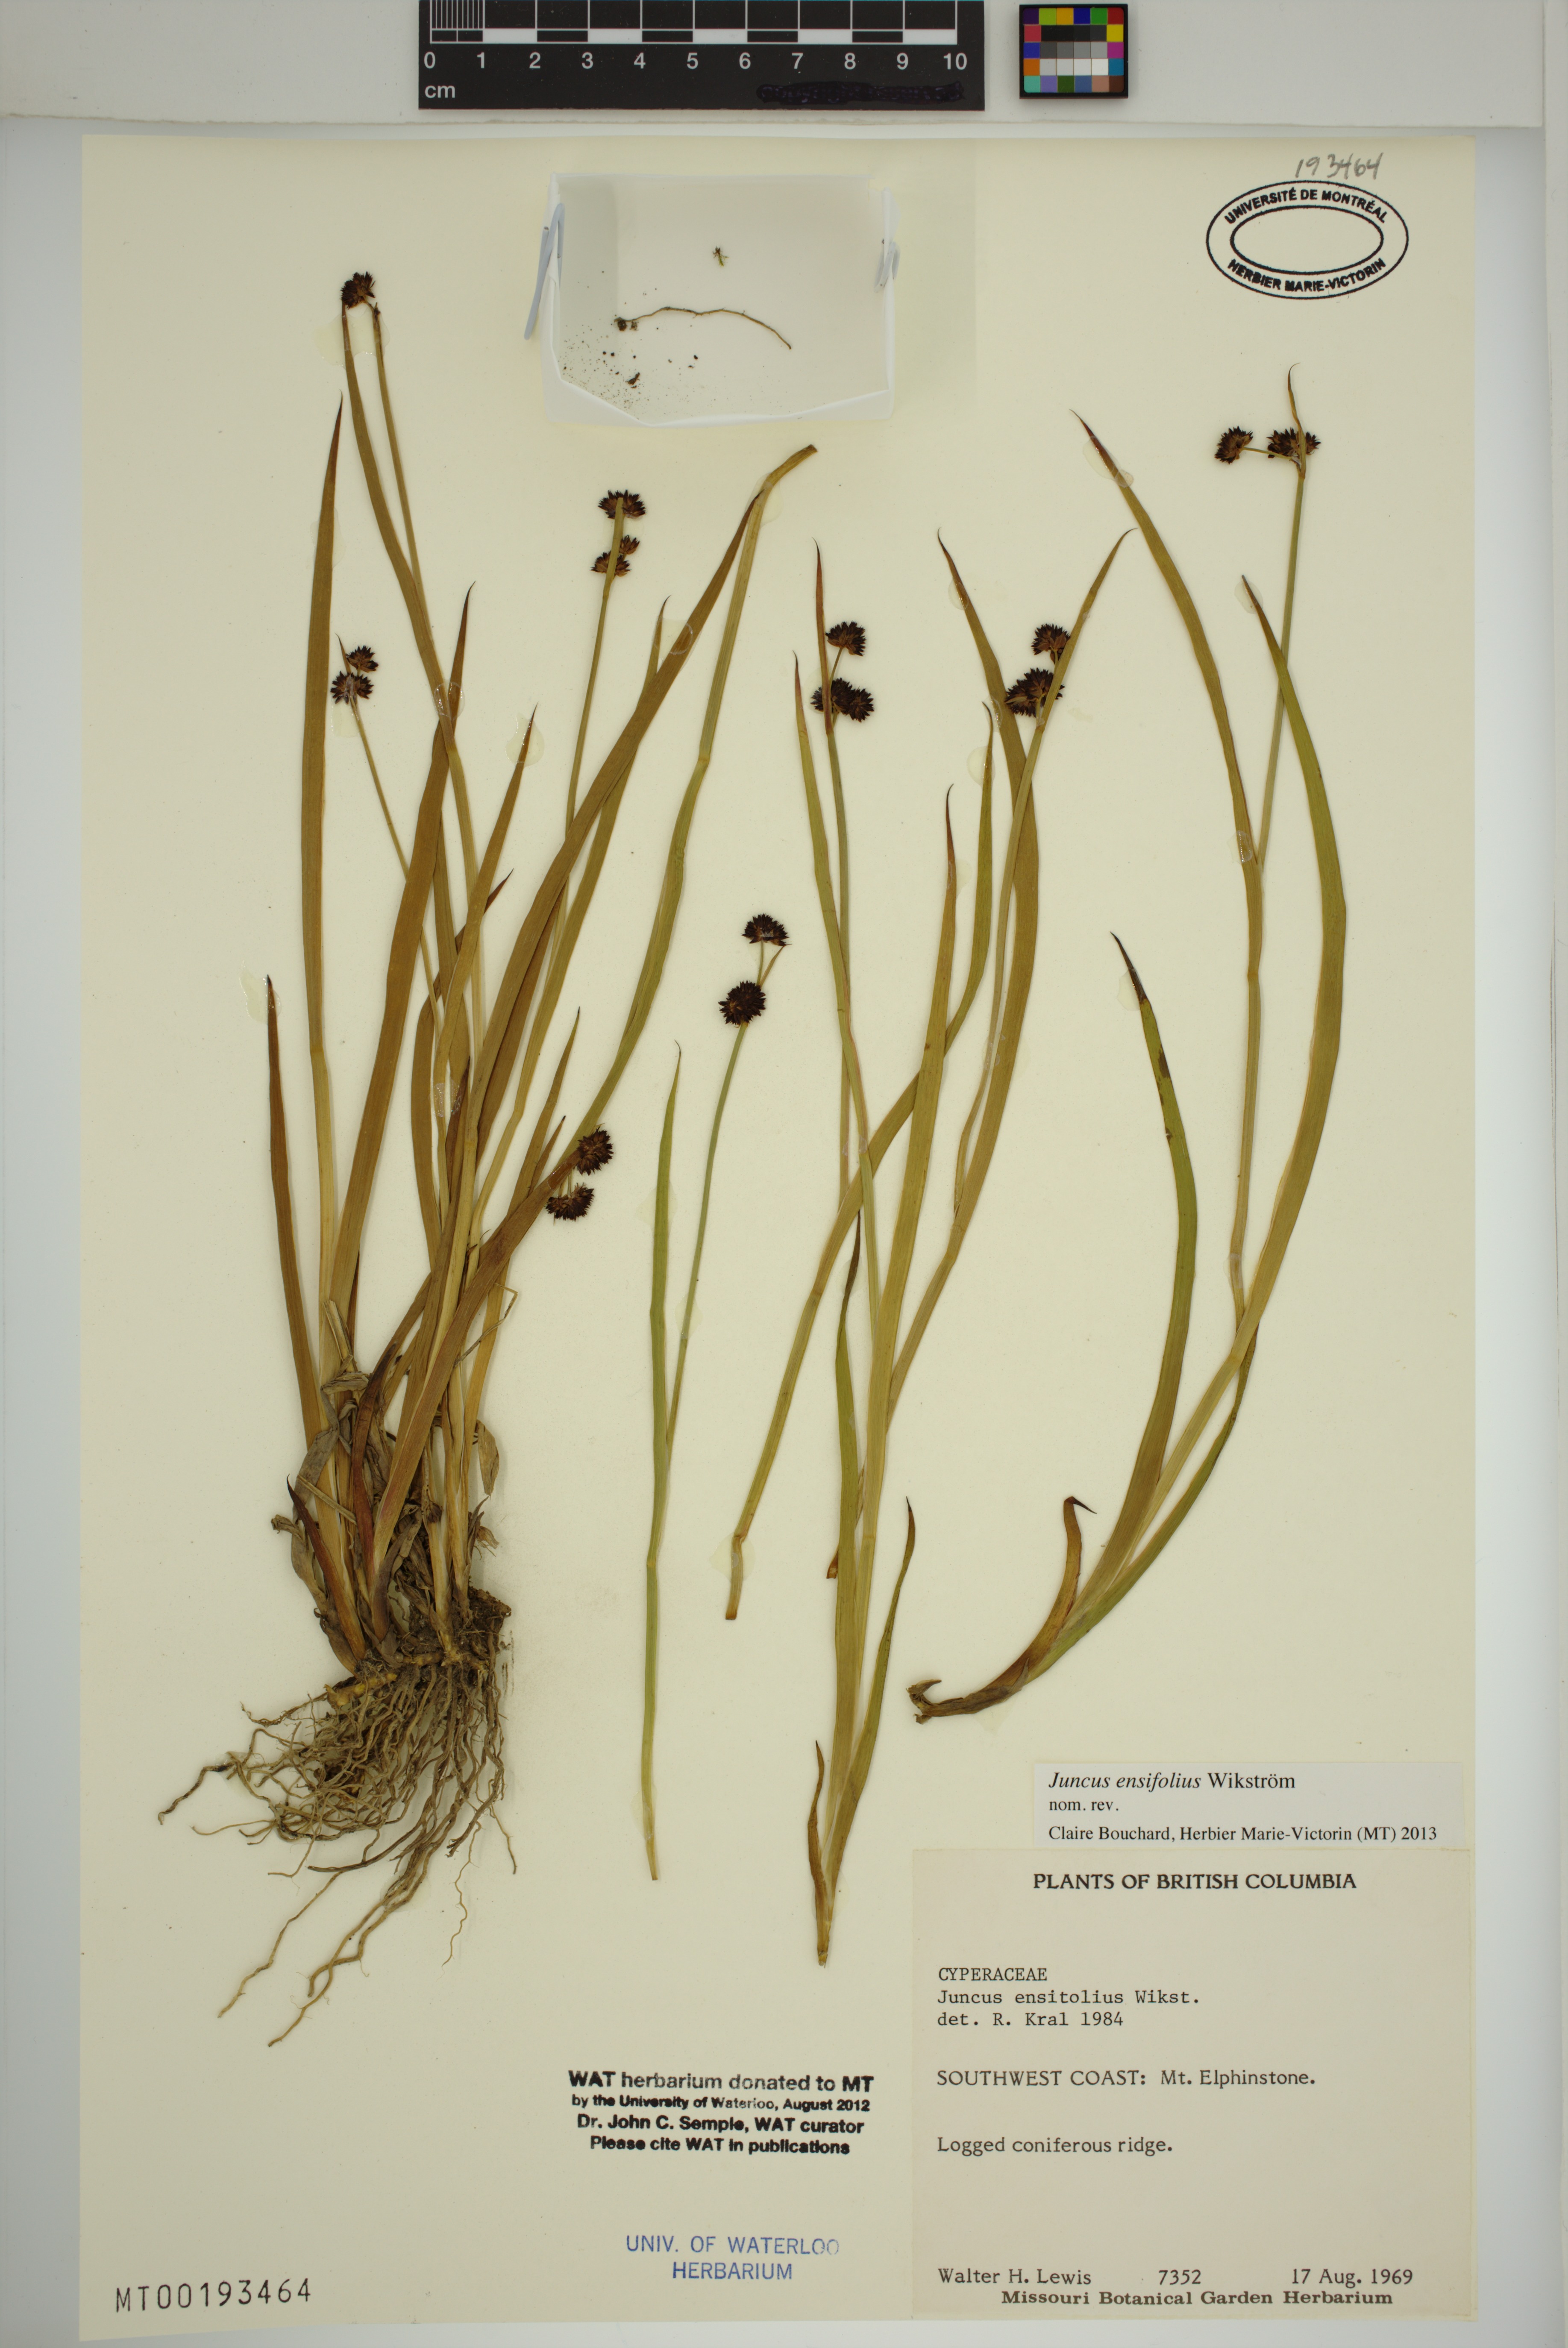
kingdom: Plantae
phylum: Tracheophyta
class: Liliopsida
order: Poales
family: Juncaceae
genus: Juncus
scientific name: Juncus ensifolius
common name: Sword-leaved rush
